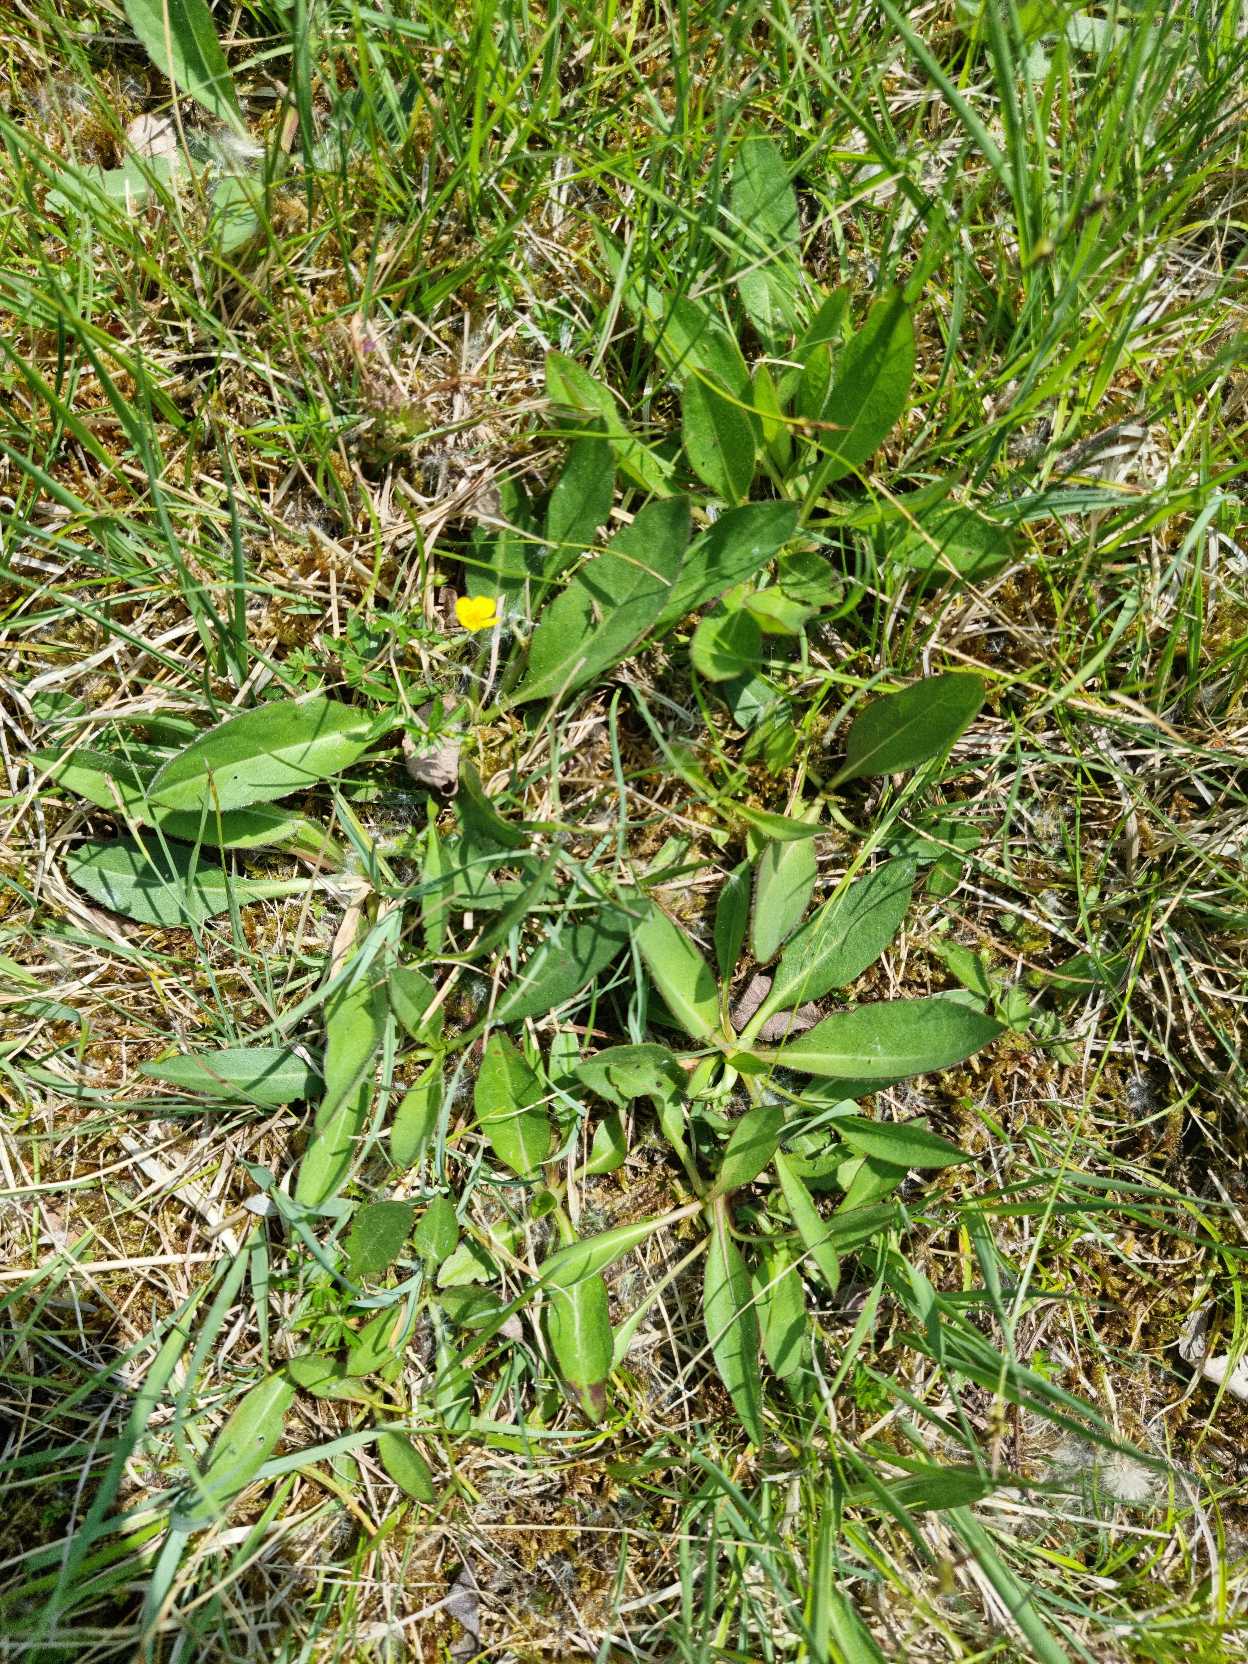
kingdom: Plantae
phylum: Tracheophyta
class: Magnoliopsida
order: Dipsacales
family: Caprifoliaceae
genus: Succisa
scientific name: Succisa pratensis
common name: Djævelsbid
